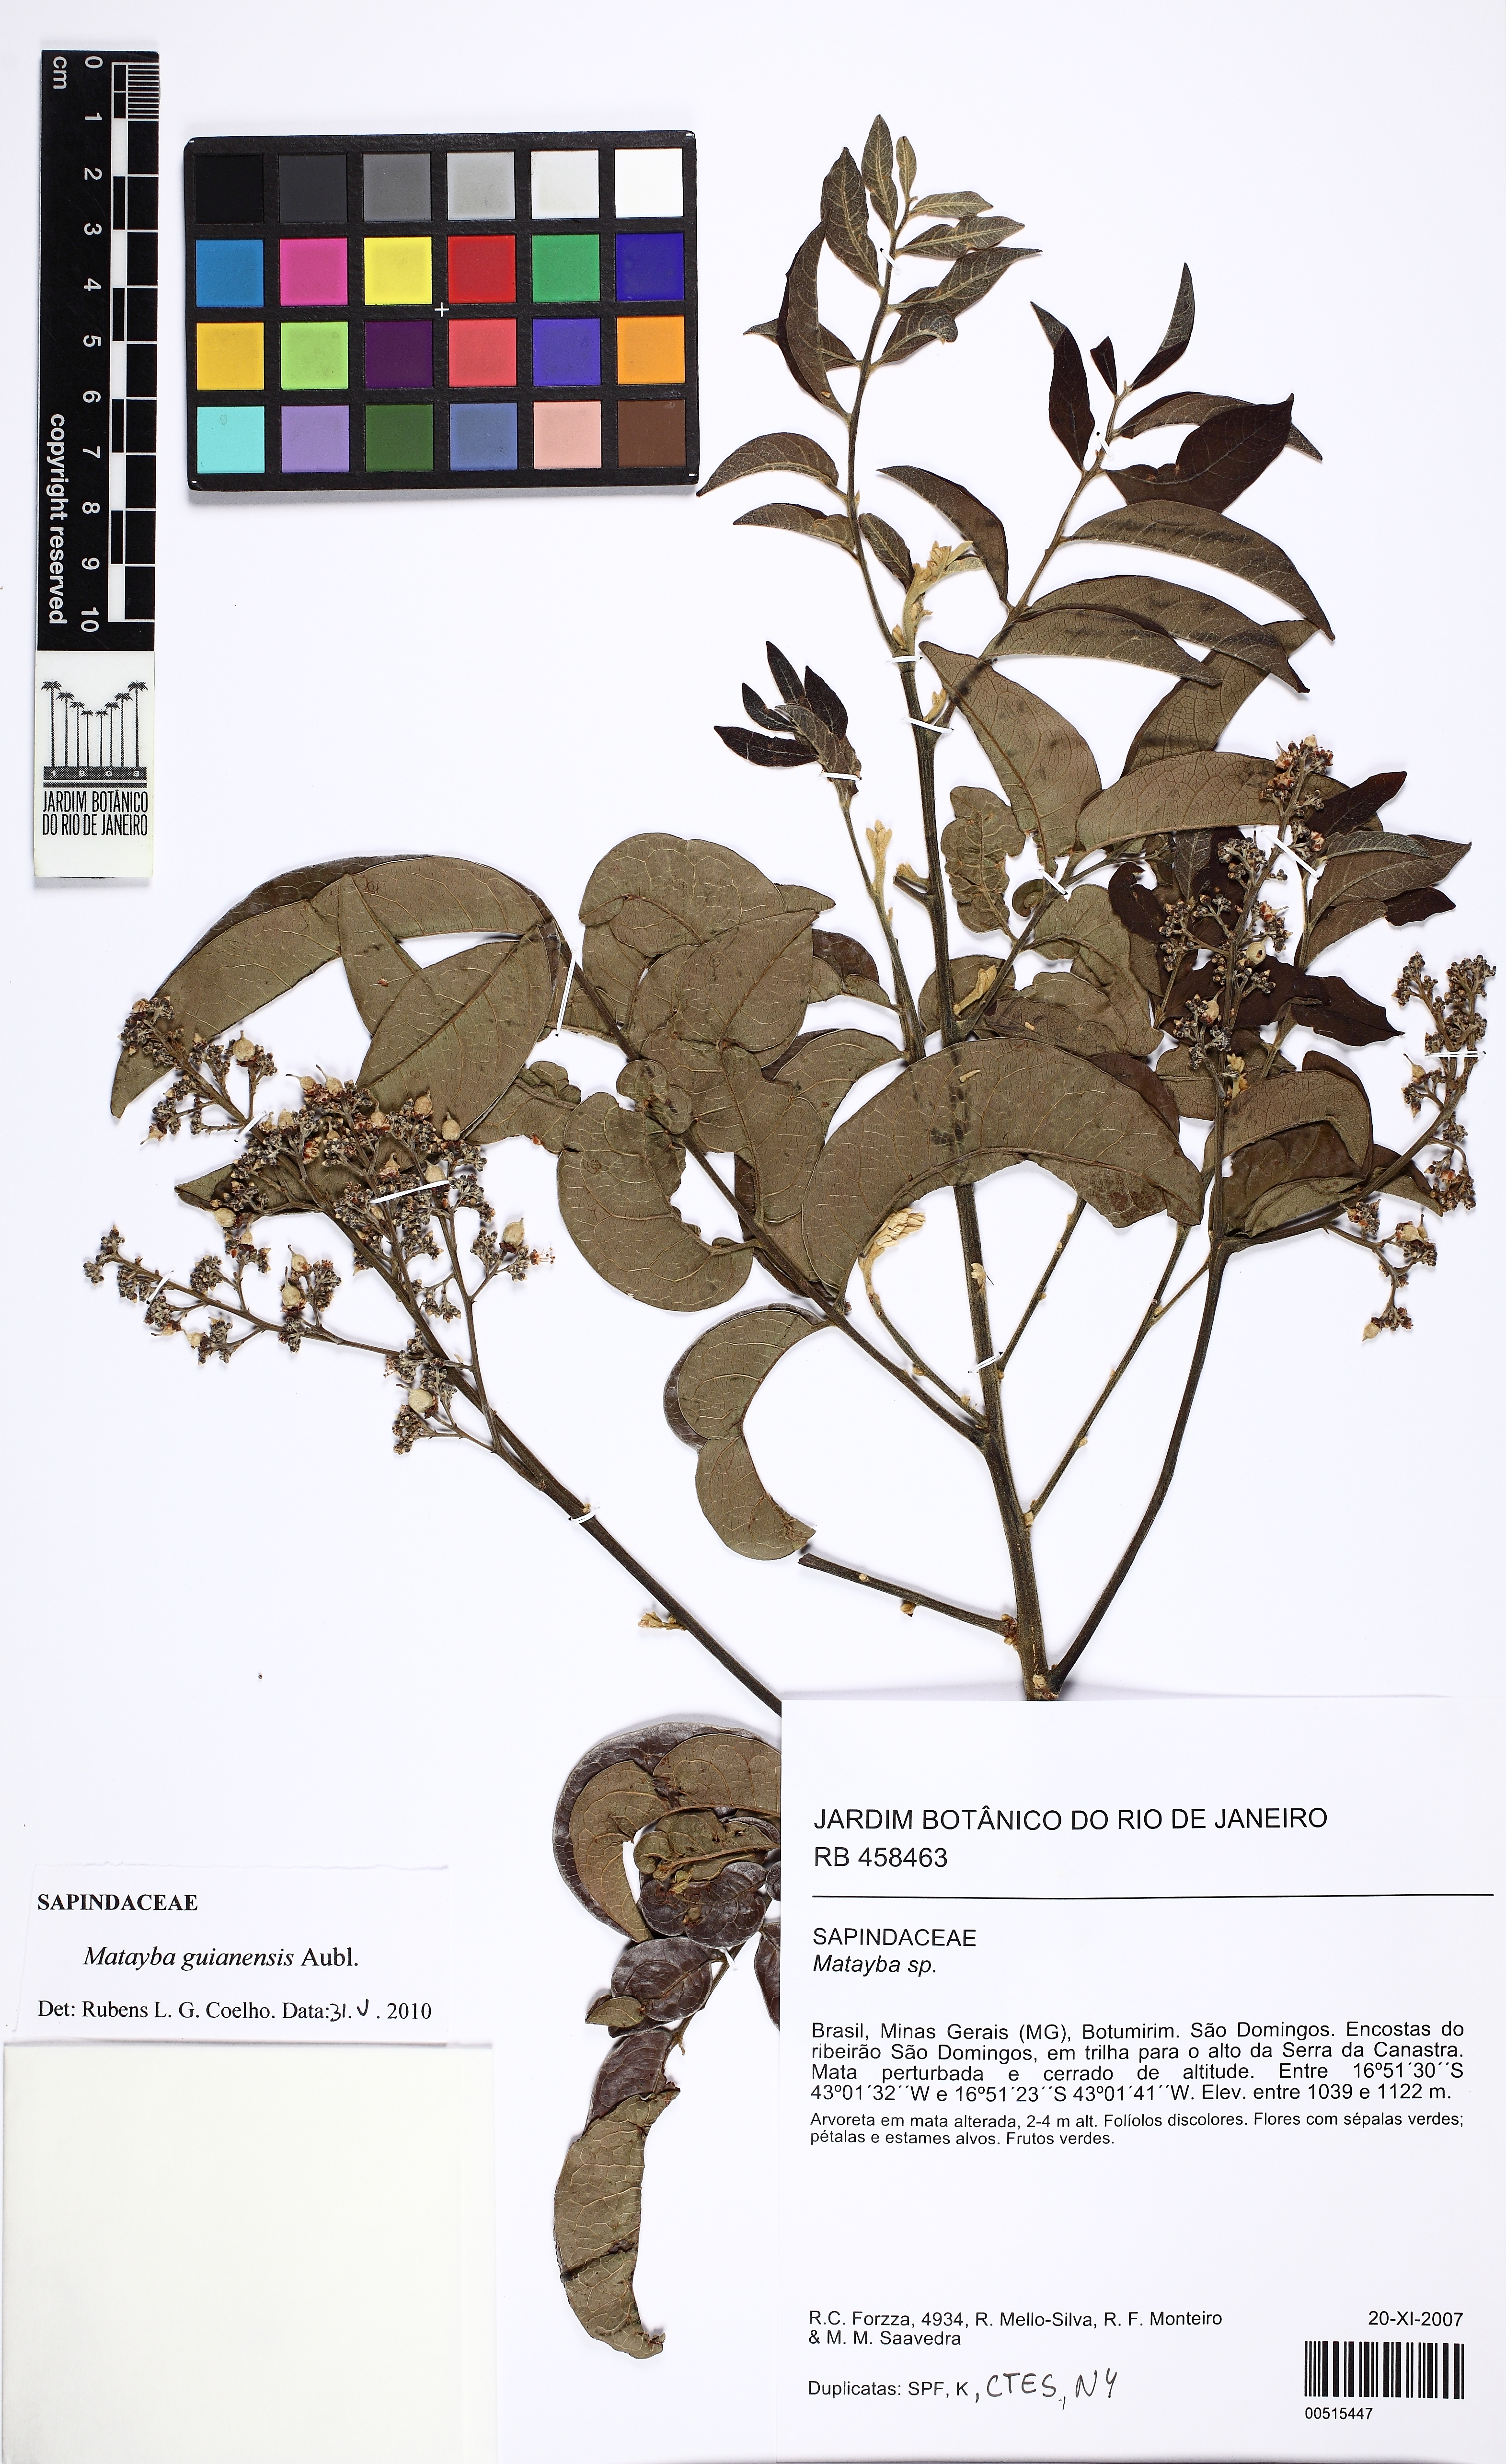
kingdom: Plantae
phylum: Tracheophyta
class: Magnoliopsida
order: Sapindales
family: Sapindaceae
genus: Matayba
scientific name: Matayba guianensis
